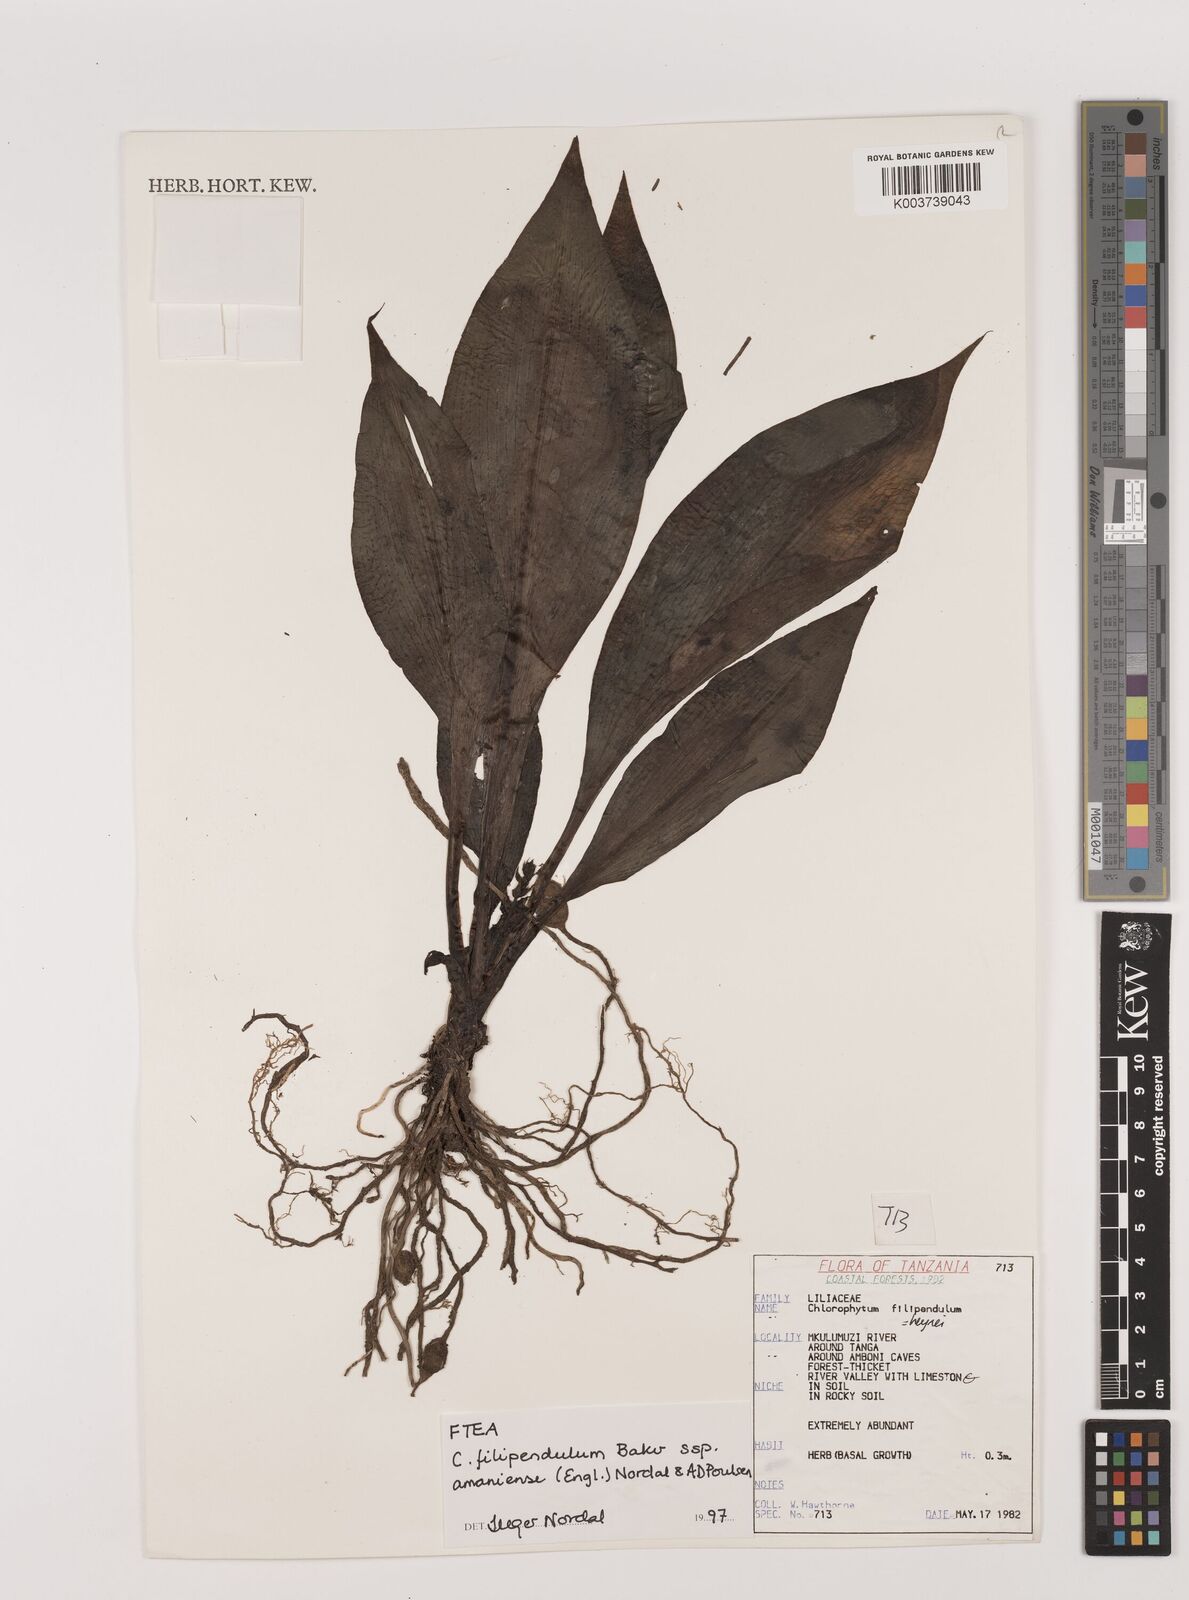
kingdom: Plantae
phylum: Tracheophyta
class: Liliopsida
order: Asparagales
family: Asparagaceae
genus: Chlorophytum
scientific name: Chlorophytum filipendulum
